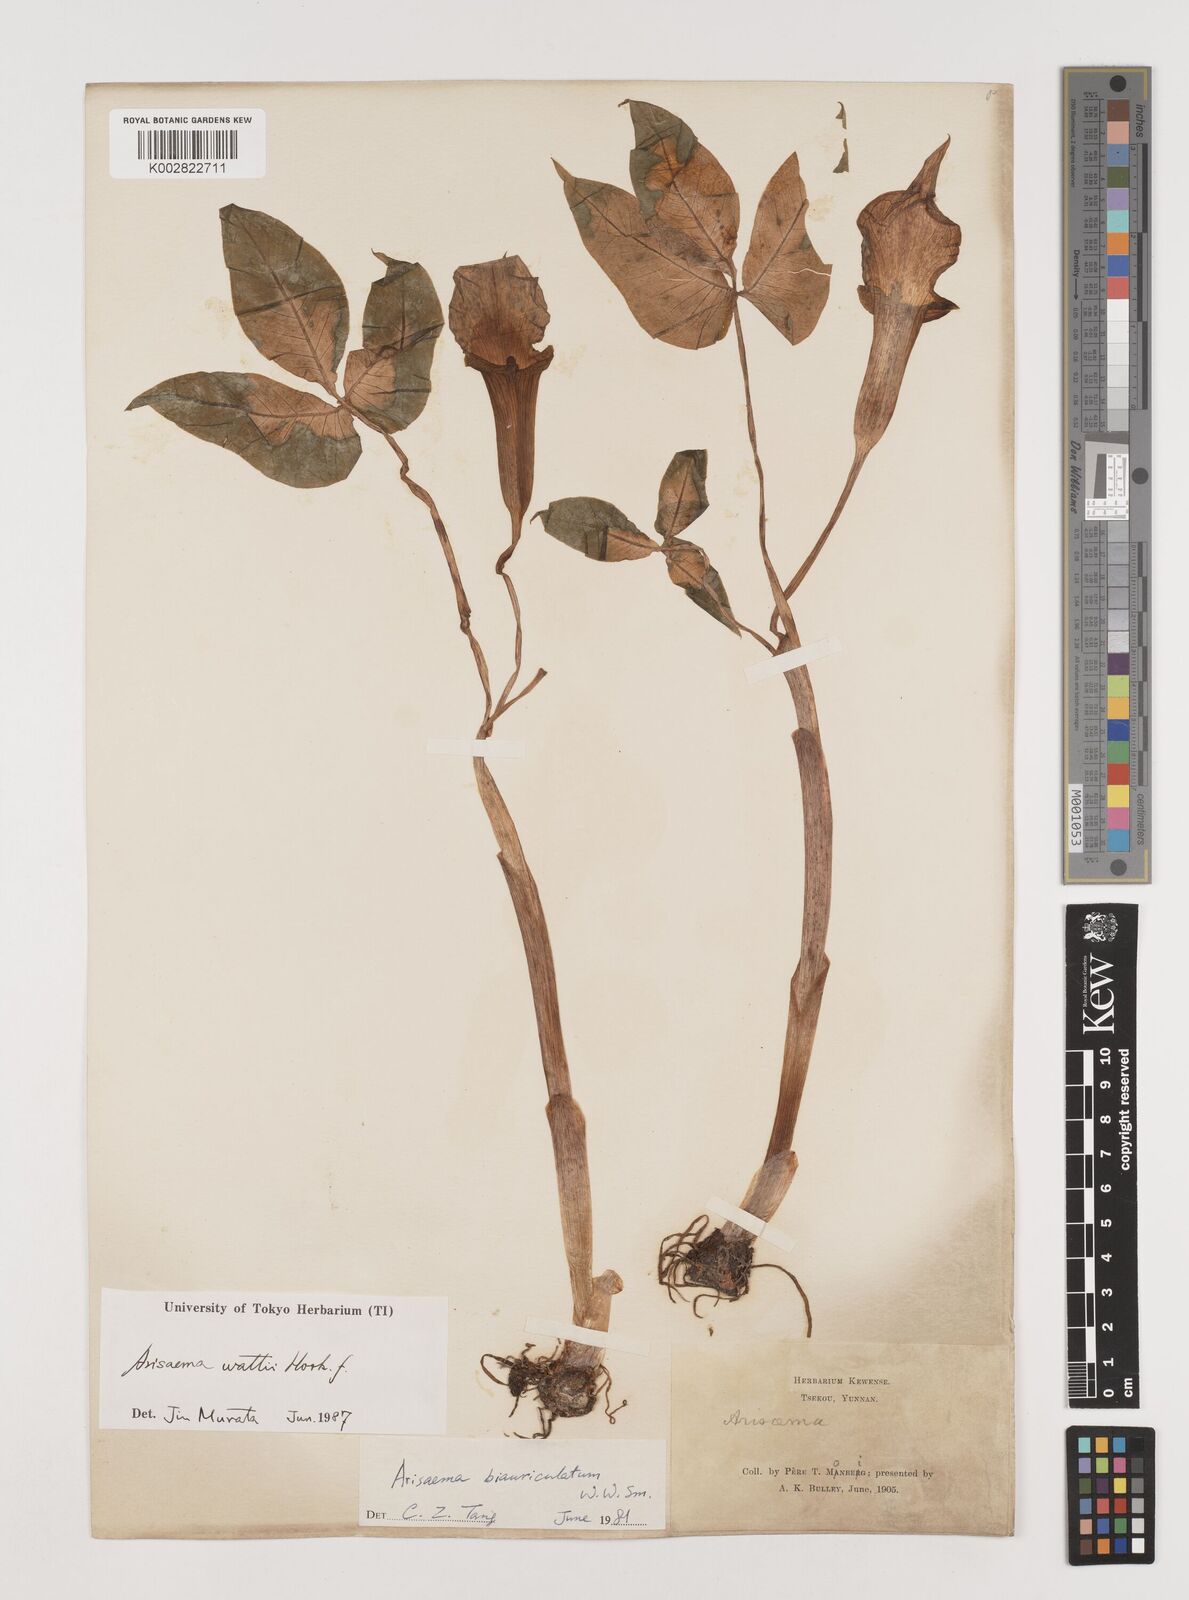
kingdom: Plantae
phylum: Tracheophyta
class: Liliopsida
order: Alismatales
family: Araceae
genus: Arisaema
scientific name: Arisaema wattii
